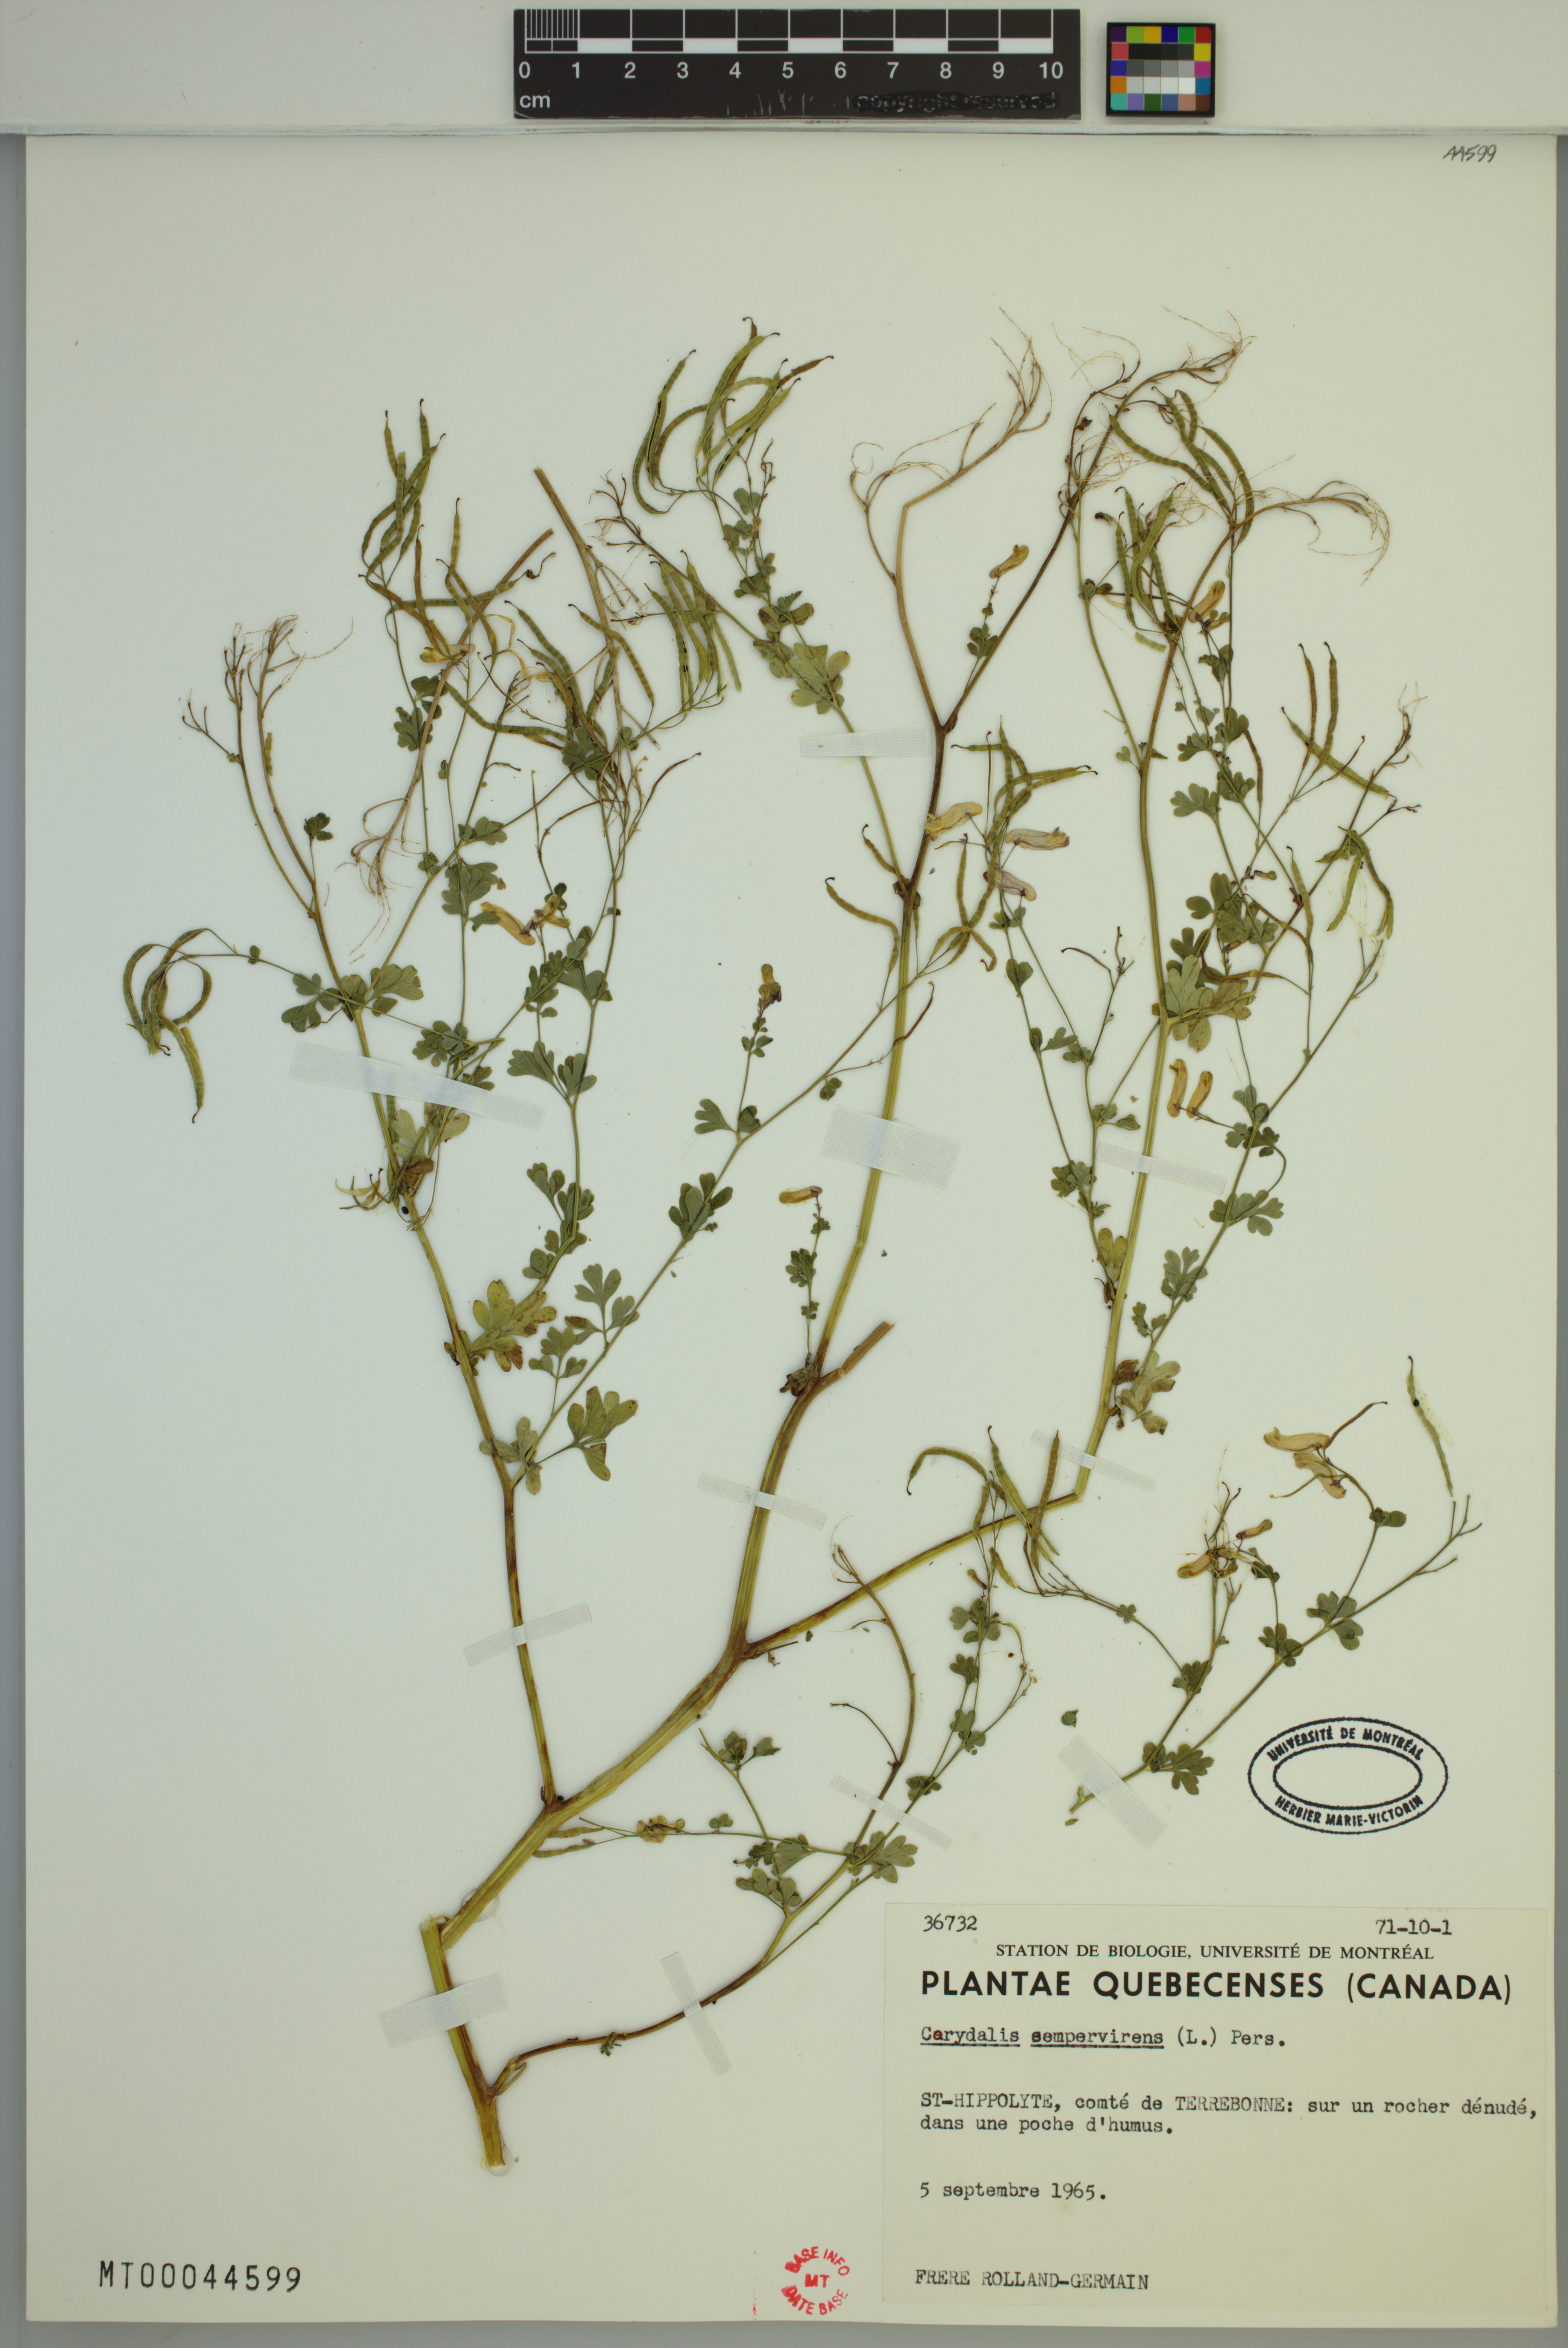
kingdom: Plantae
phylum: Tracheophyta
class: Magnoliopsida
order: Ranunculales
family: Papaveraceae
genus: Capnoides
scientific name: Capnoides sempervirens
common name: Rock harlequin
